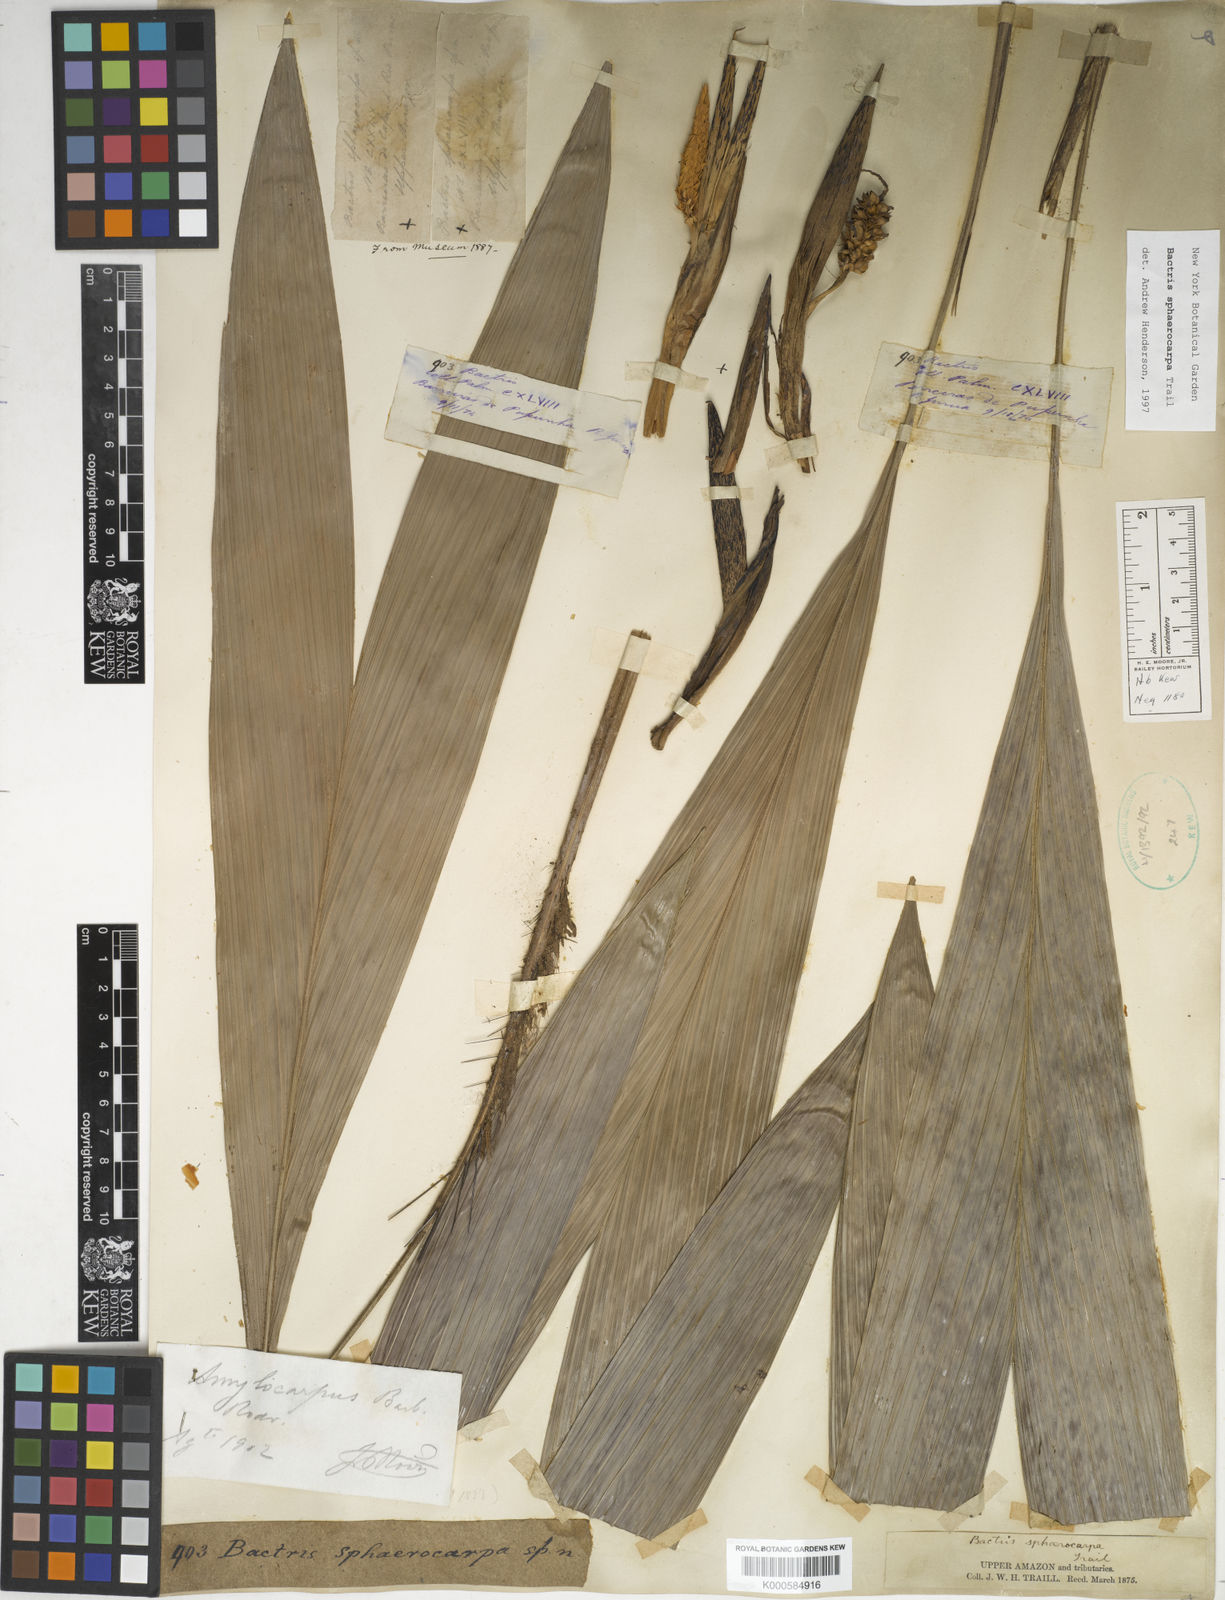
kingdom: Plantae
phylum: Tracheophyta
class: Liliopsida
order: Arecales
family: Arecaceae
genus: Bactris
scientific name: Bactris sphaerocarpa
